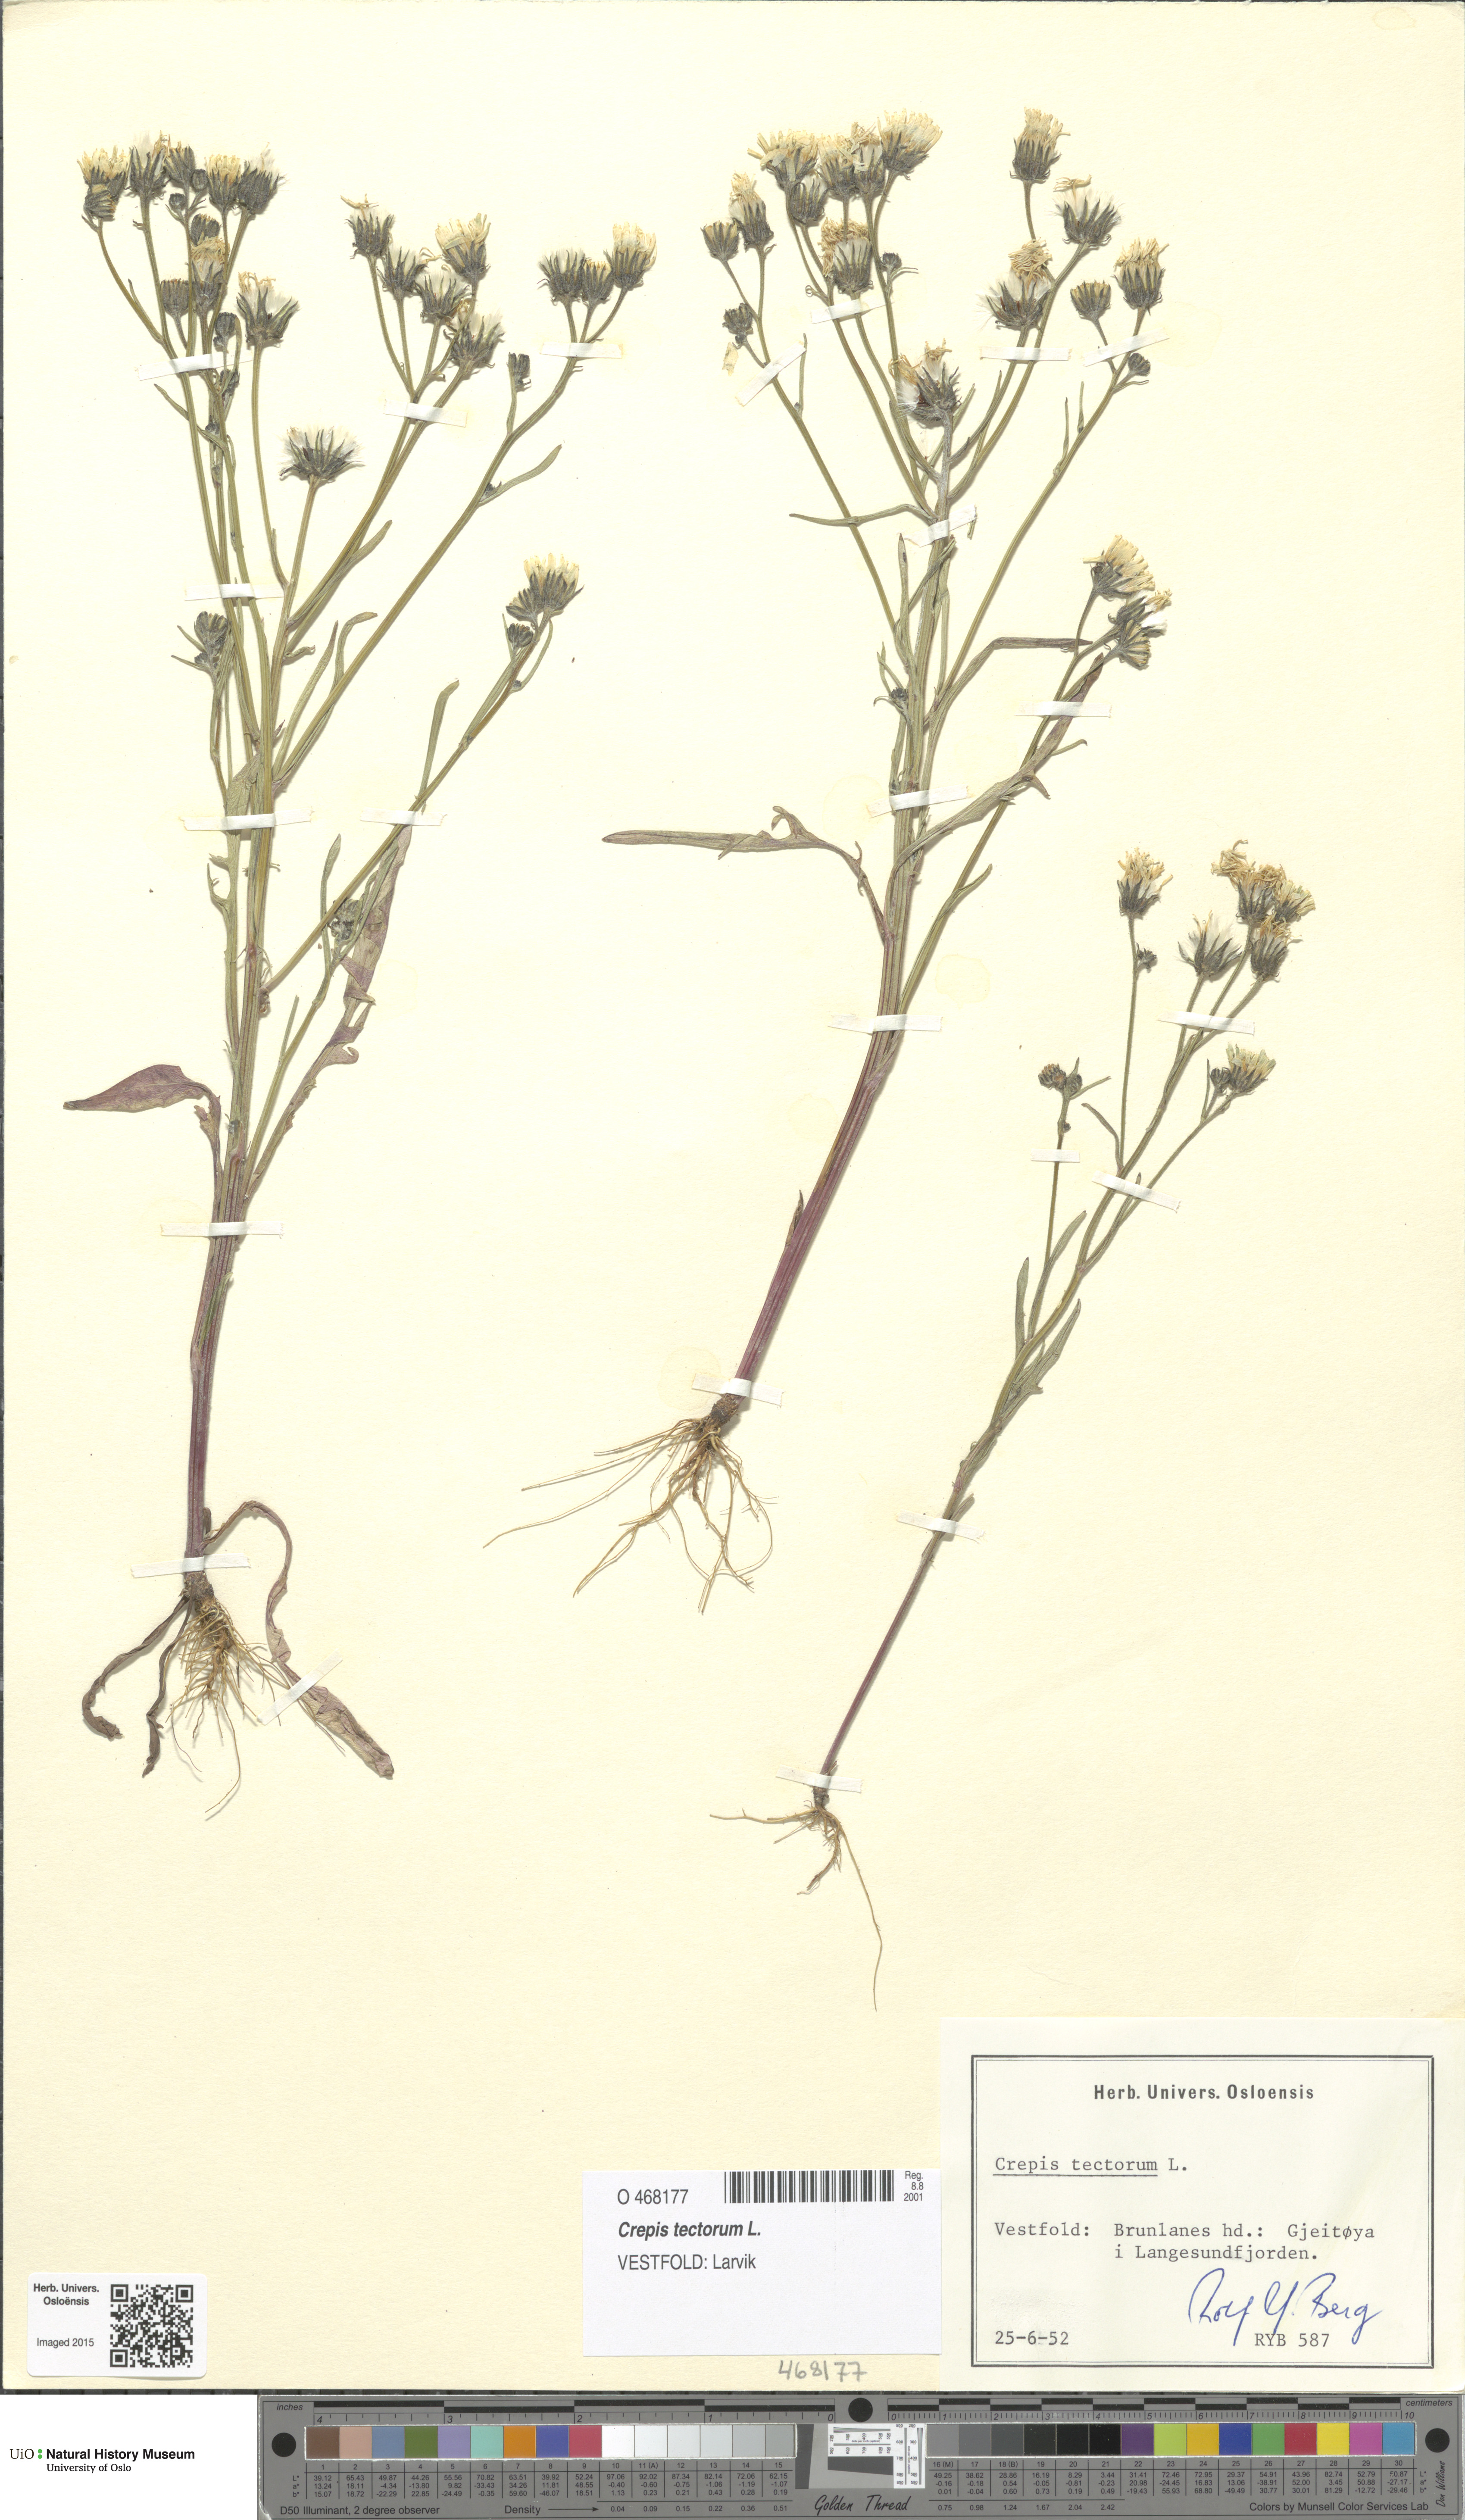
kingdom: Plantae
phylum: Tracheophyta
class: Magnoliopsida
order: Asterales
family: Asteraceae
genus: Crepis
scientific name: Crepis tectorum
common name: Narrow-leaved hawk's-beard
